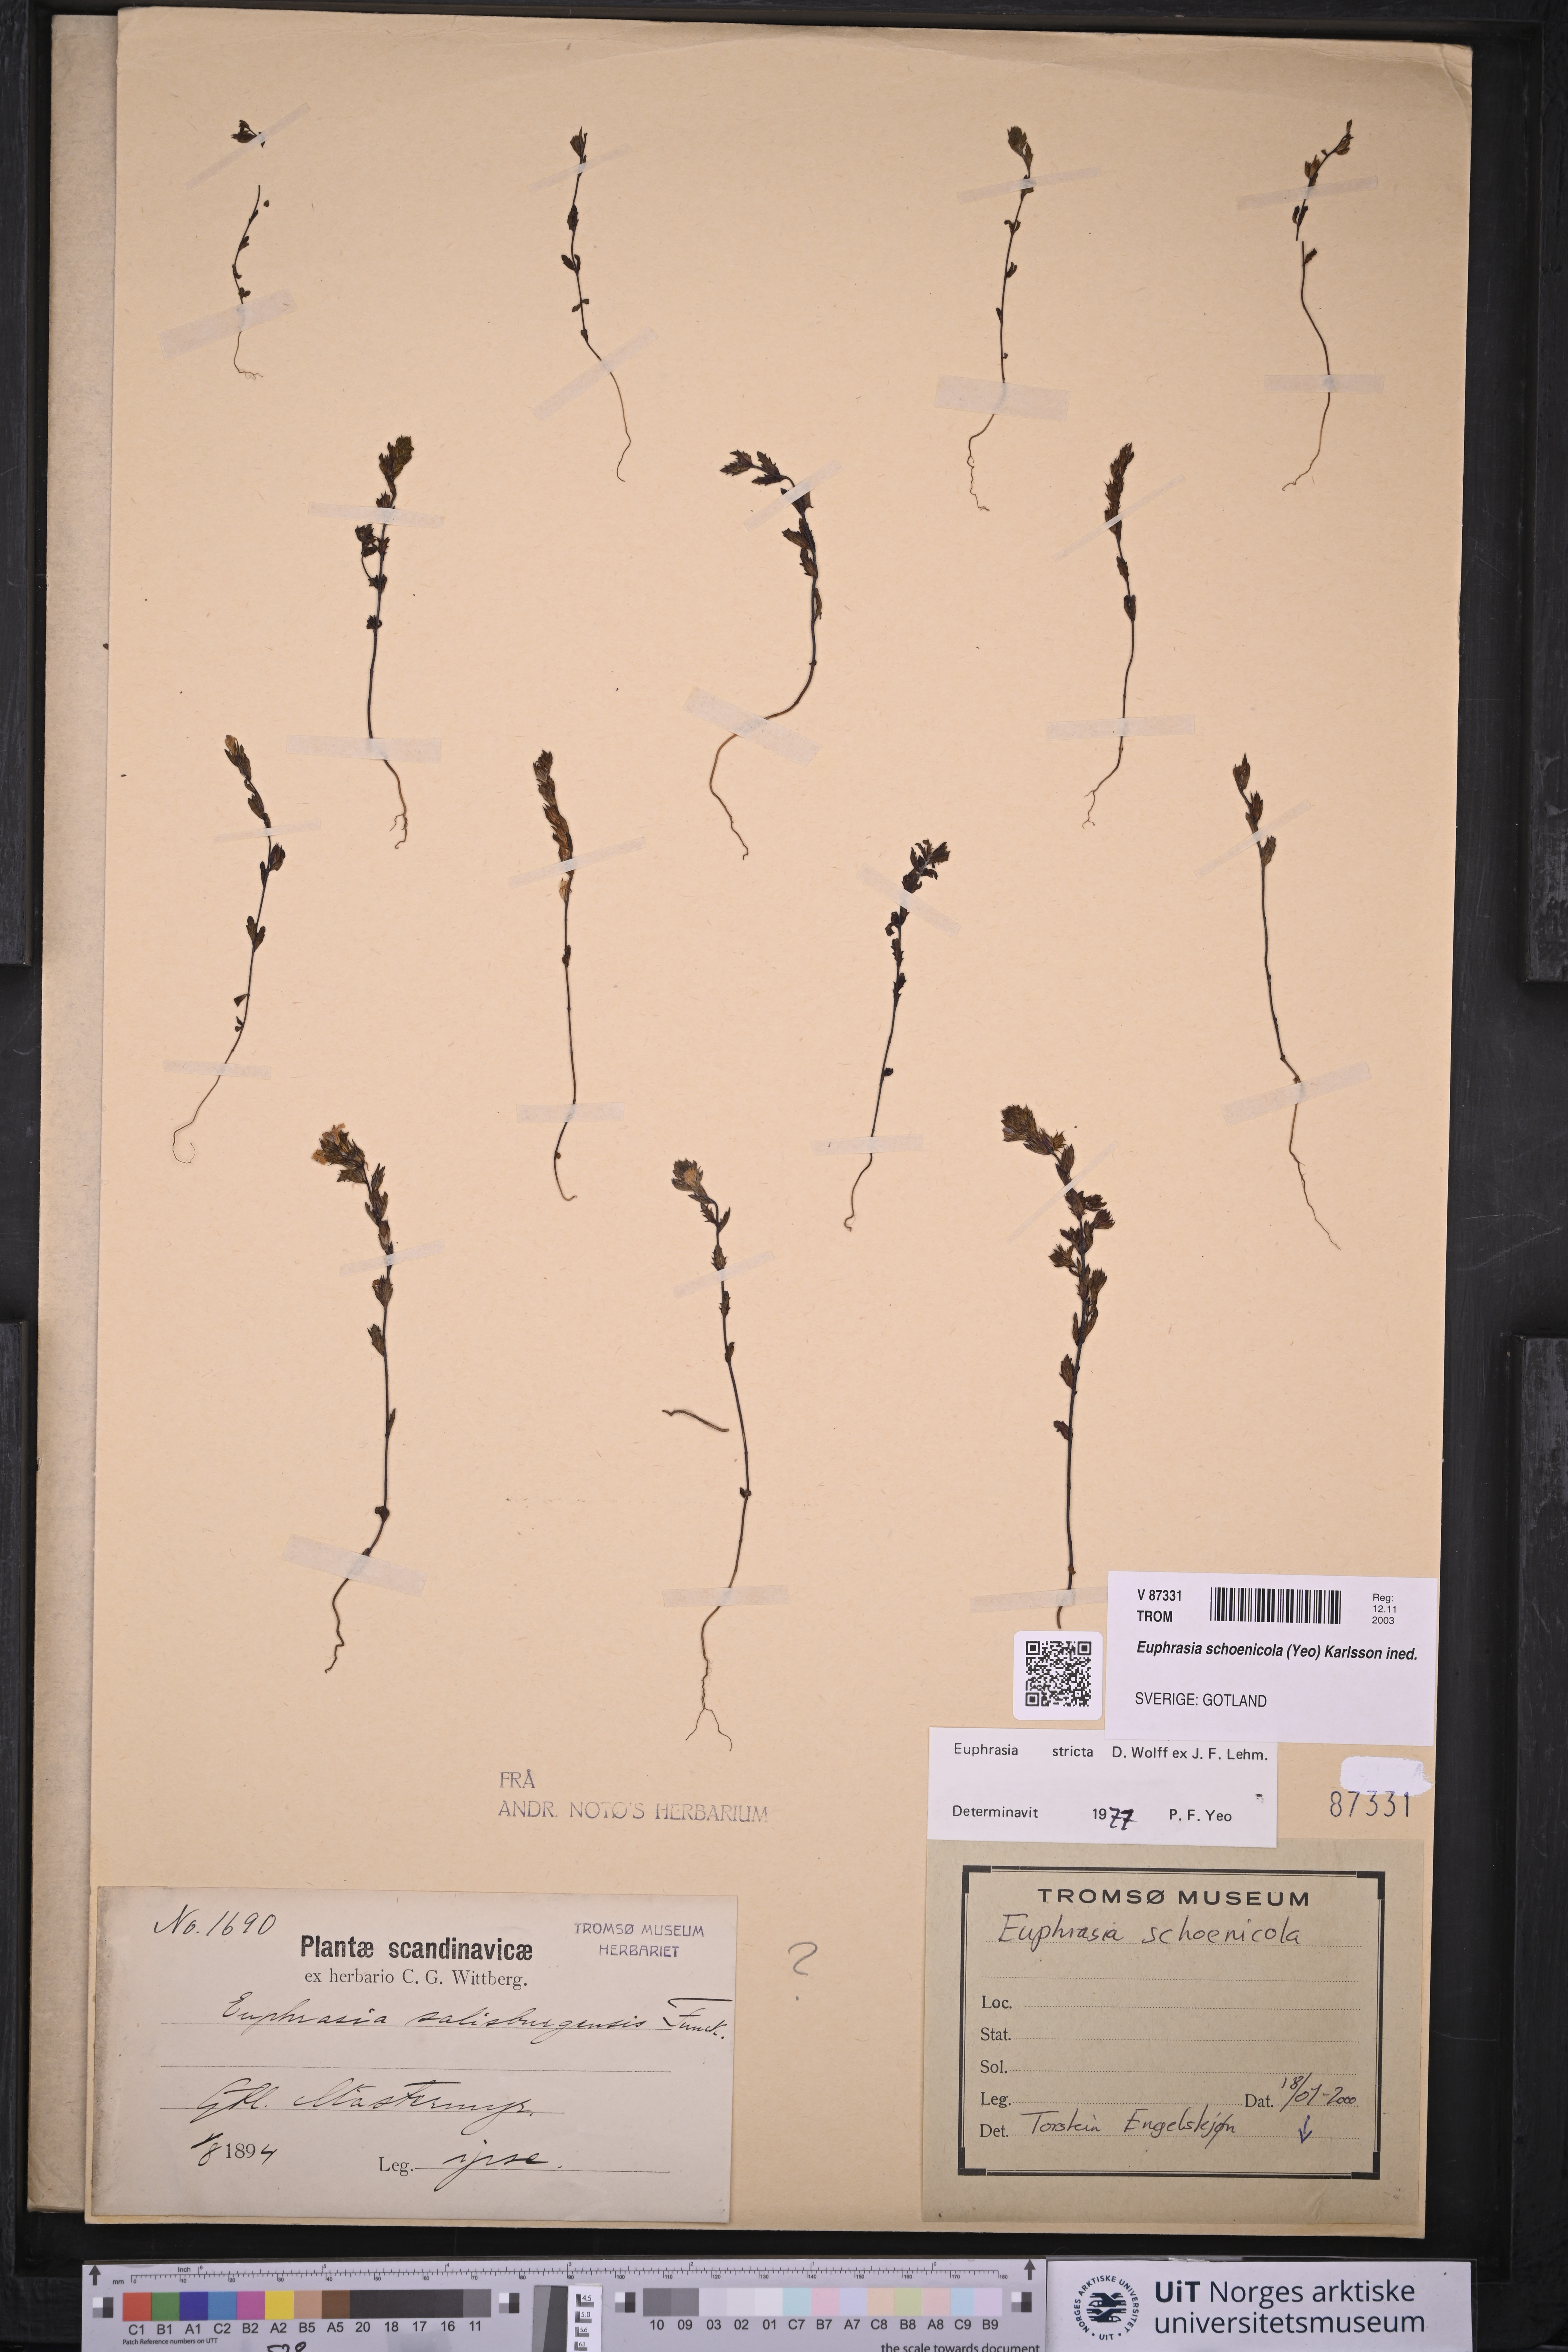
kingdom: Plantae
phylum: Tracheophyta
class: Magnoliopsida
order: Lamiales
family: Orobanchaceae
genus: Euphrasia
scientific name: Euphrasia schoenicola
